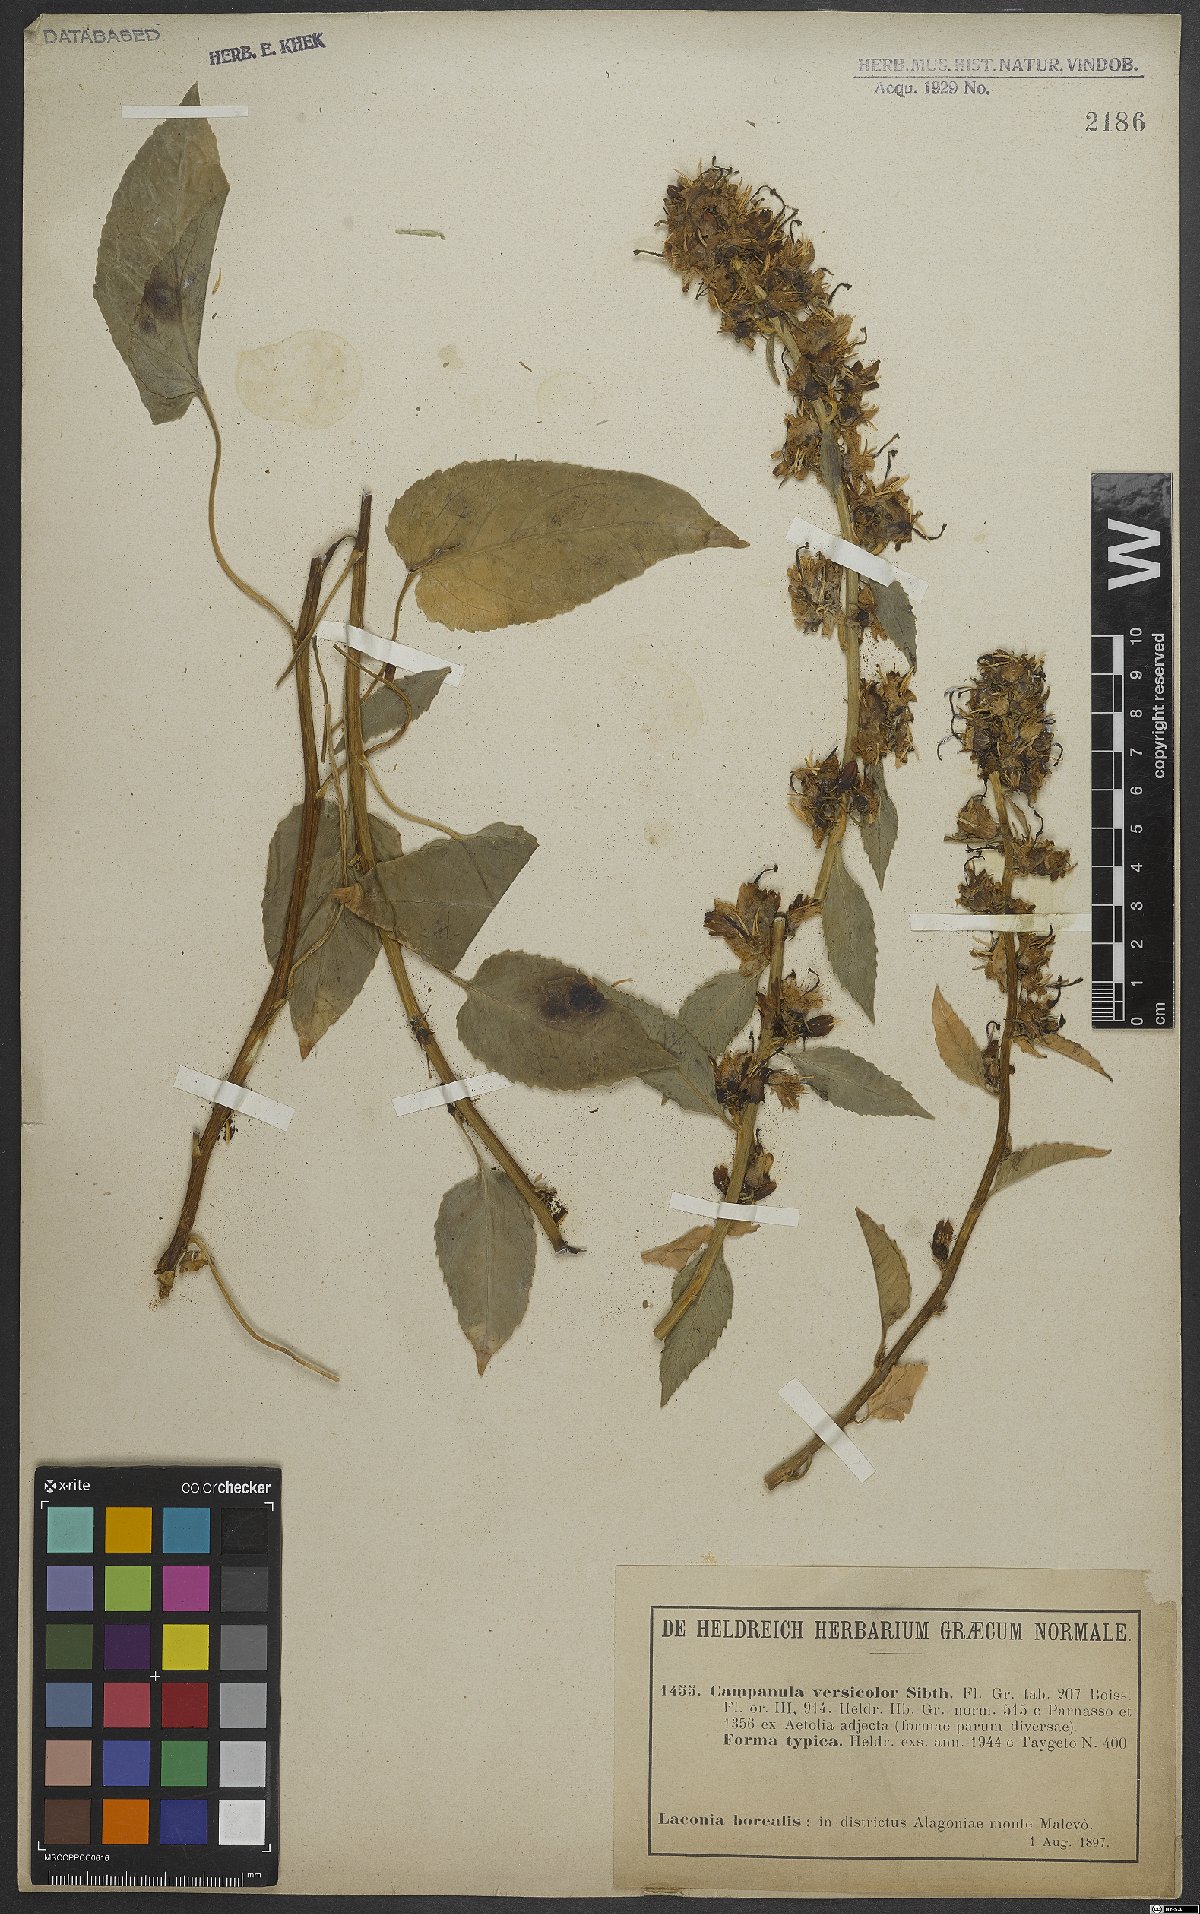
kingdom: Plantae
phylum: Tracheophyta
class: Magnoliopsida
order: Asterales
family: Campanulaceae
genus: Campanula
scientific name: Campanula versicolor
